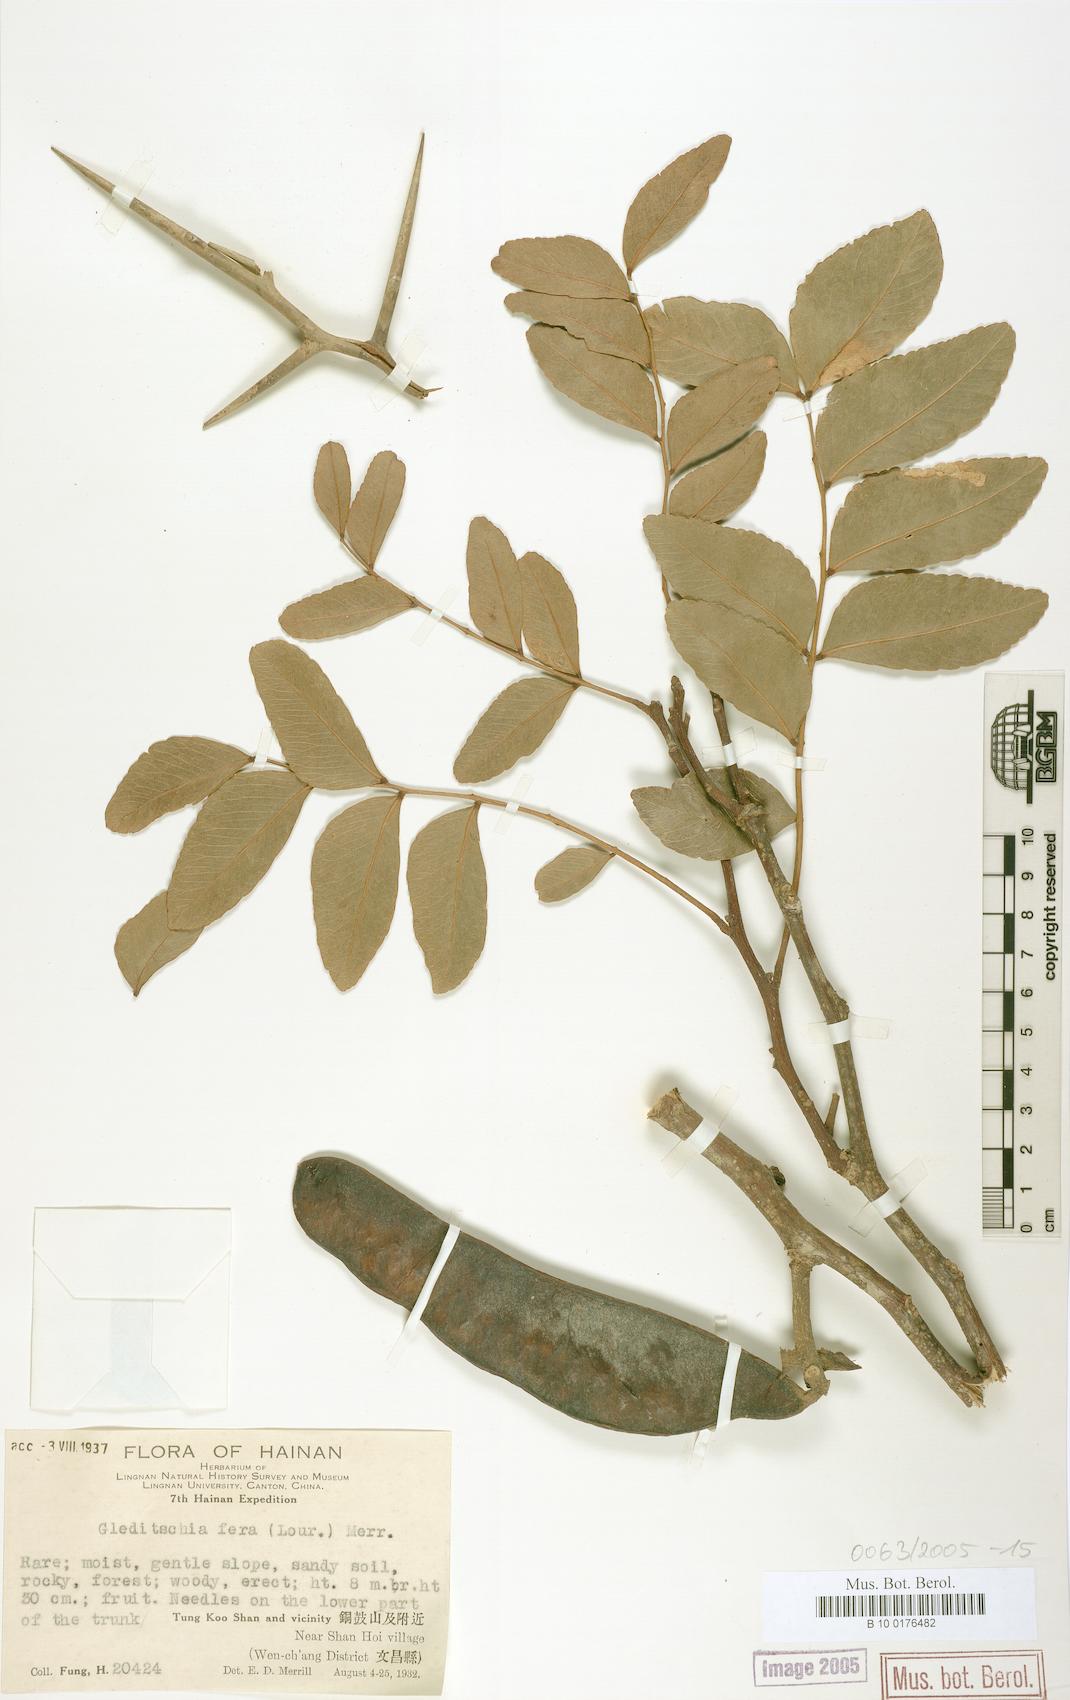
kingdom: Plantae
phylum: Tracheophyta
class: Magnoliopsida
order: Fabales
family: Fabaceae
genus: Gleditsia
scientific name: Gleditsia fera
